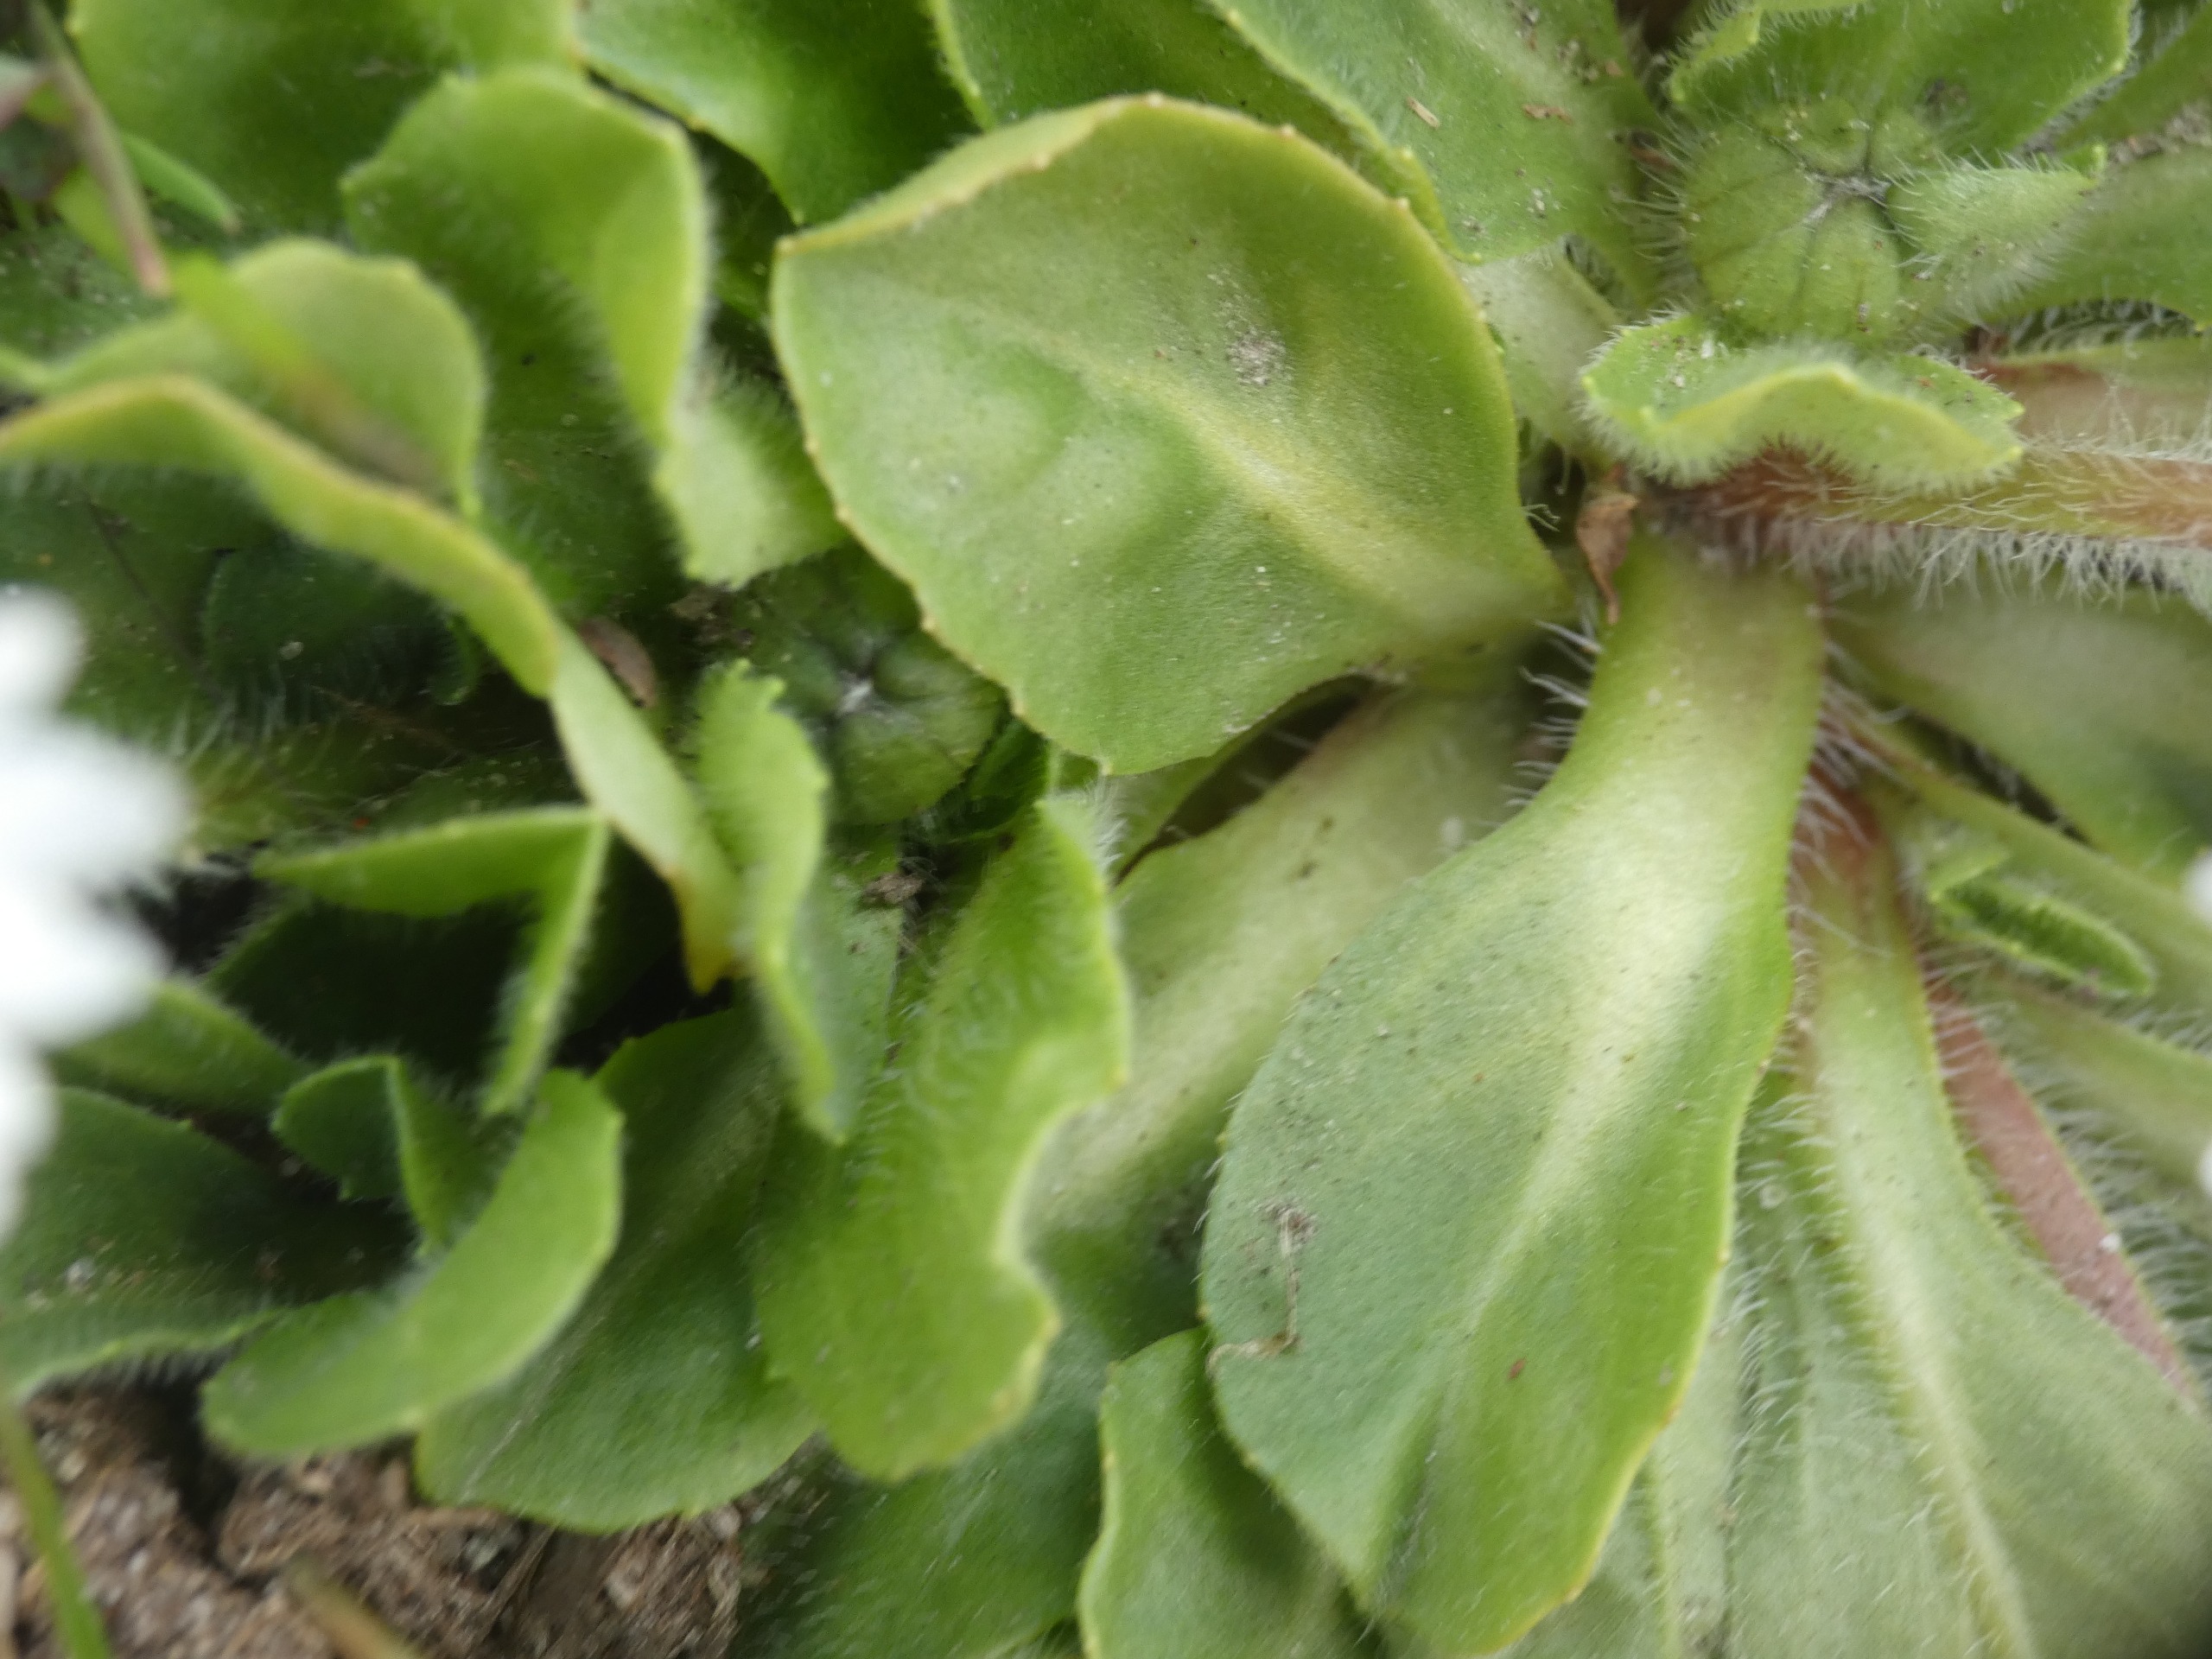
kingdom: Plantae
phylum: Tracheophyta
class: Magnoliopsida
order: Asterales
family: Asteraceae
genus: Bellis
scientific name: Bellis perennis
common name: Tusindfryd
